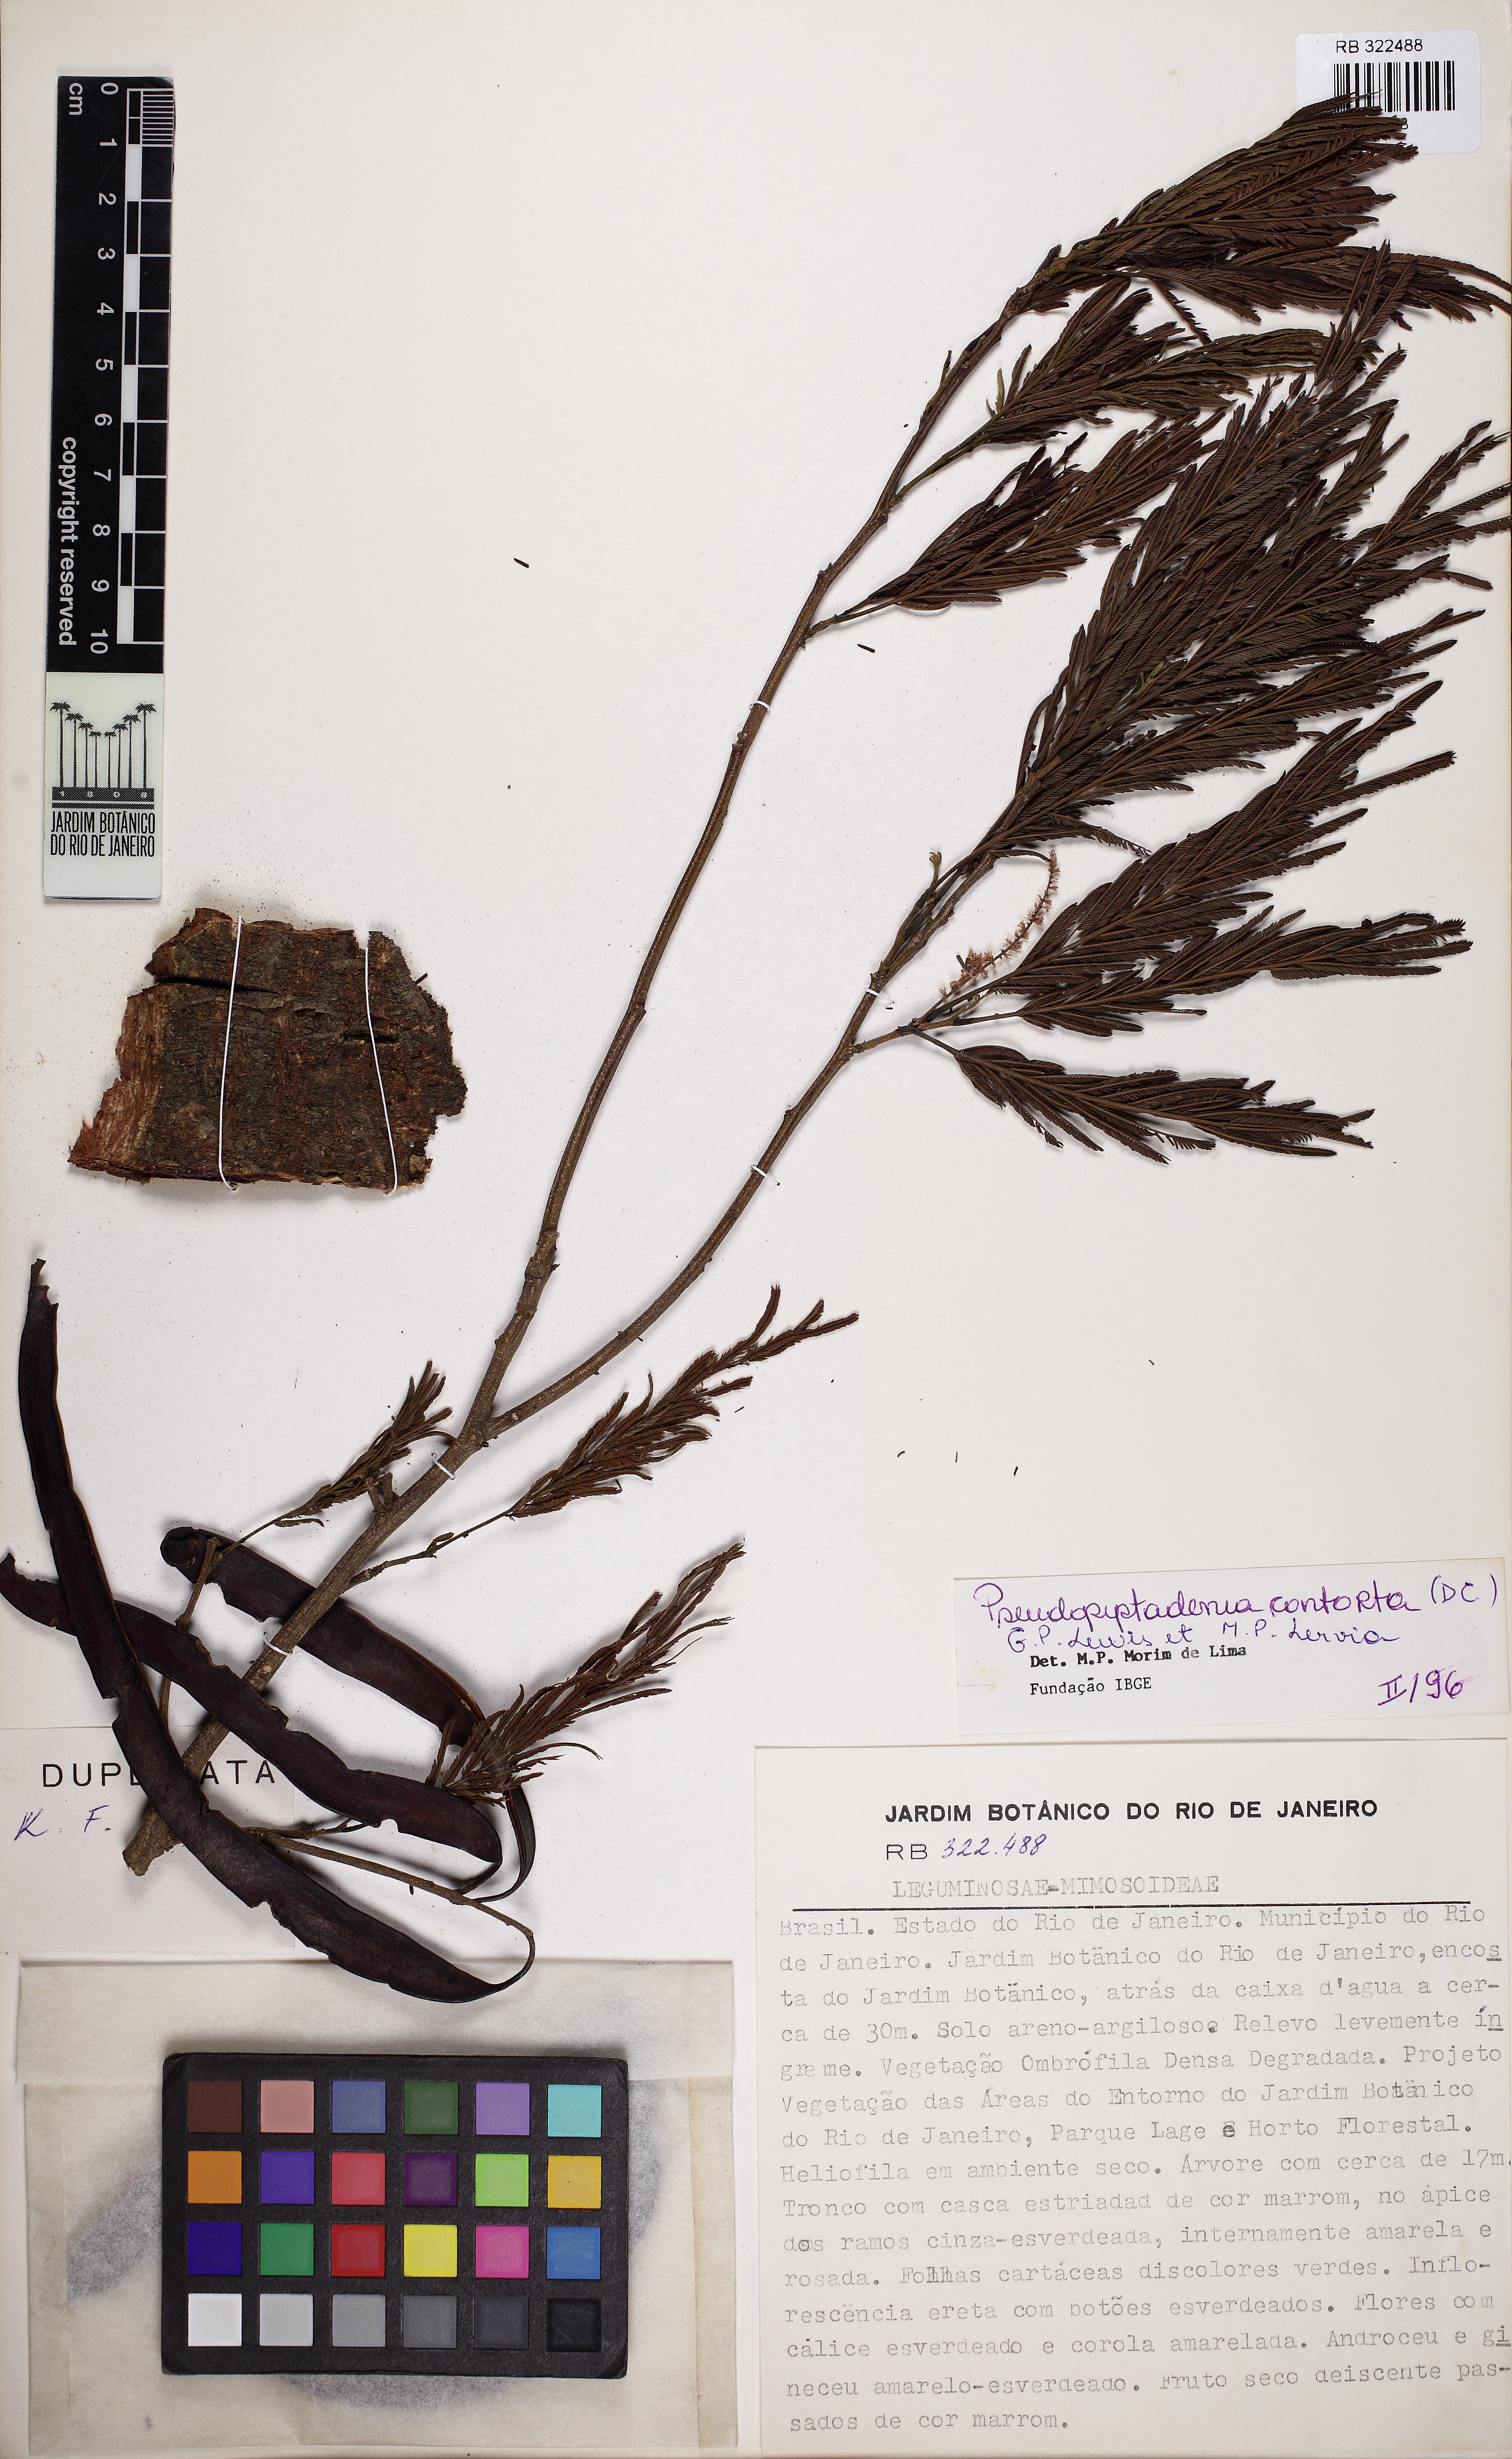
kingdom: Plantae
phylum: Tracheophyta
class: Magnoliopsida
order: Fabales
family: Fabaceae
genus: Pseudopiptadenia
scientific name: Pseudopiptadenia contorta
